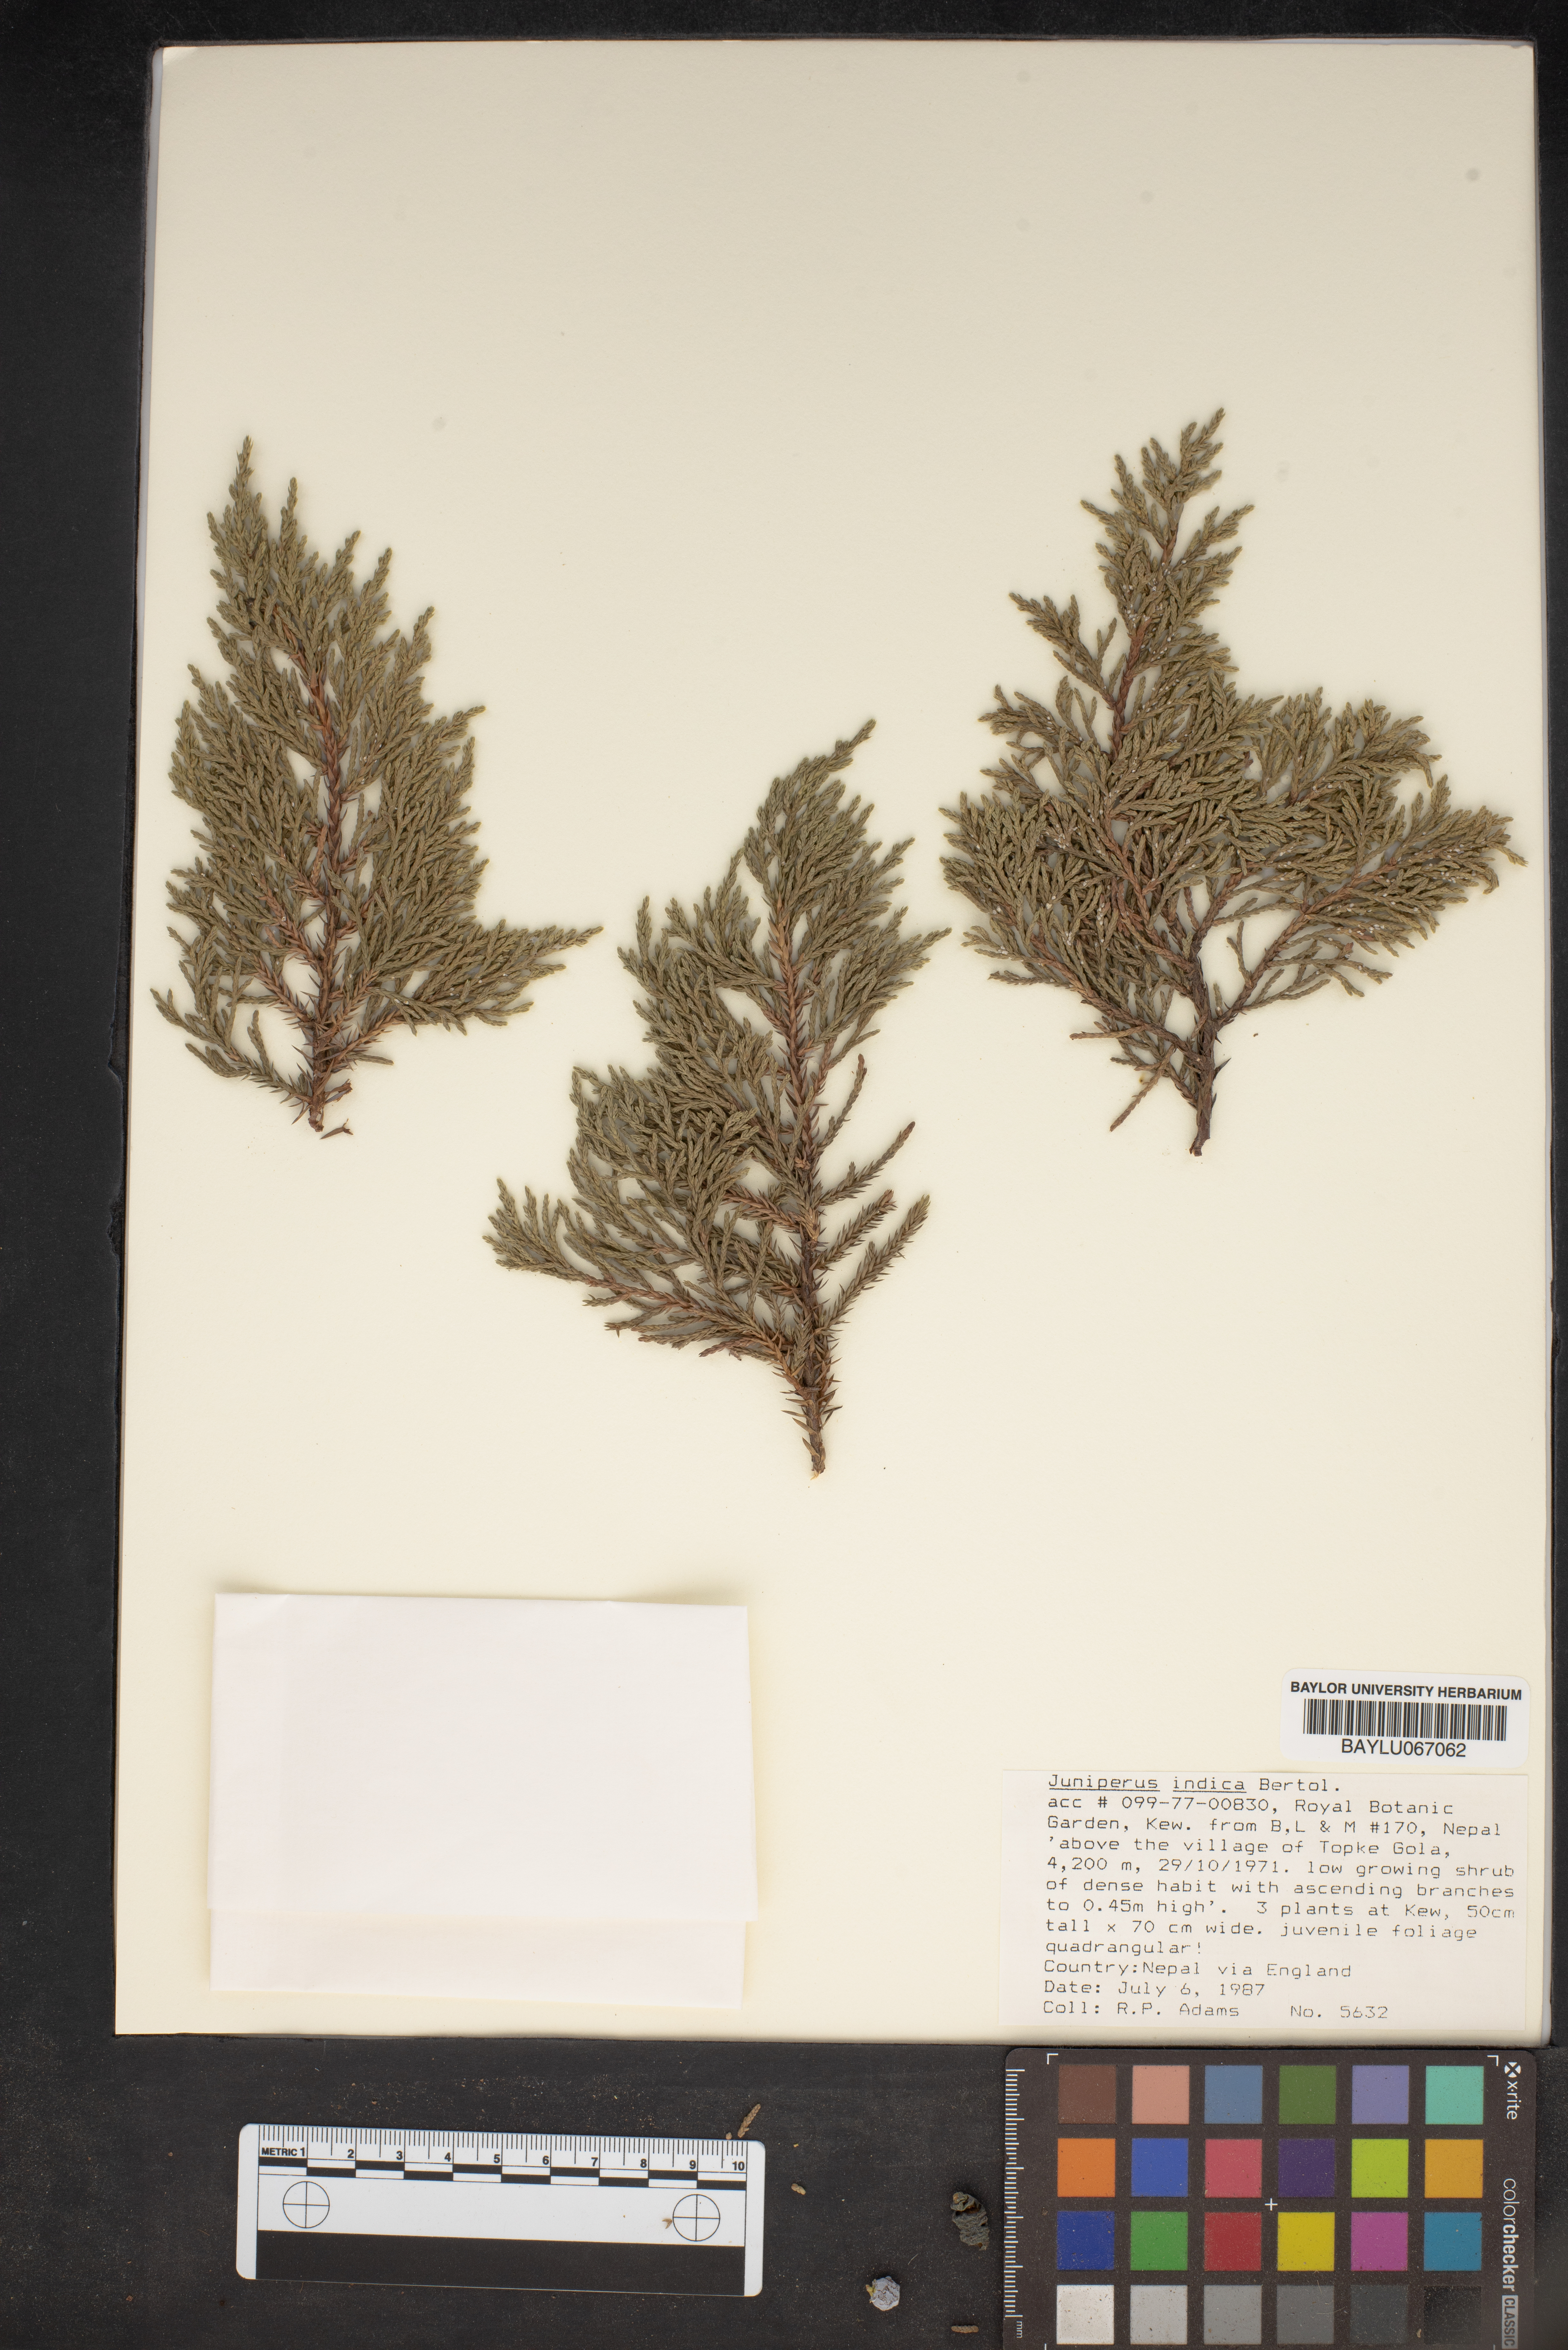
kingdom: Plantae
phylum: Tracheophyta
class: Pinopsida
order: Pinales
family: Cupressaceae
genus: Juniperus
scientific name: Juniperus indica
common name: Black juniper
